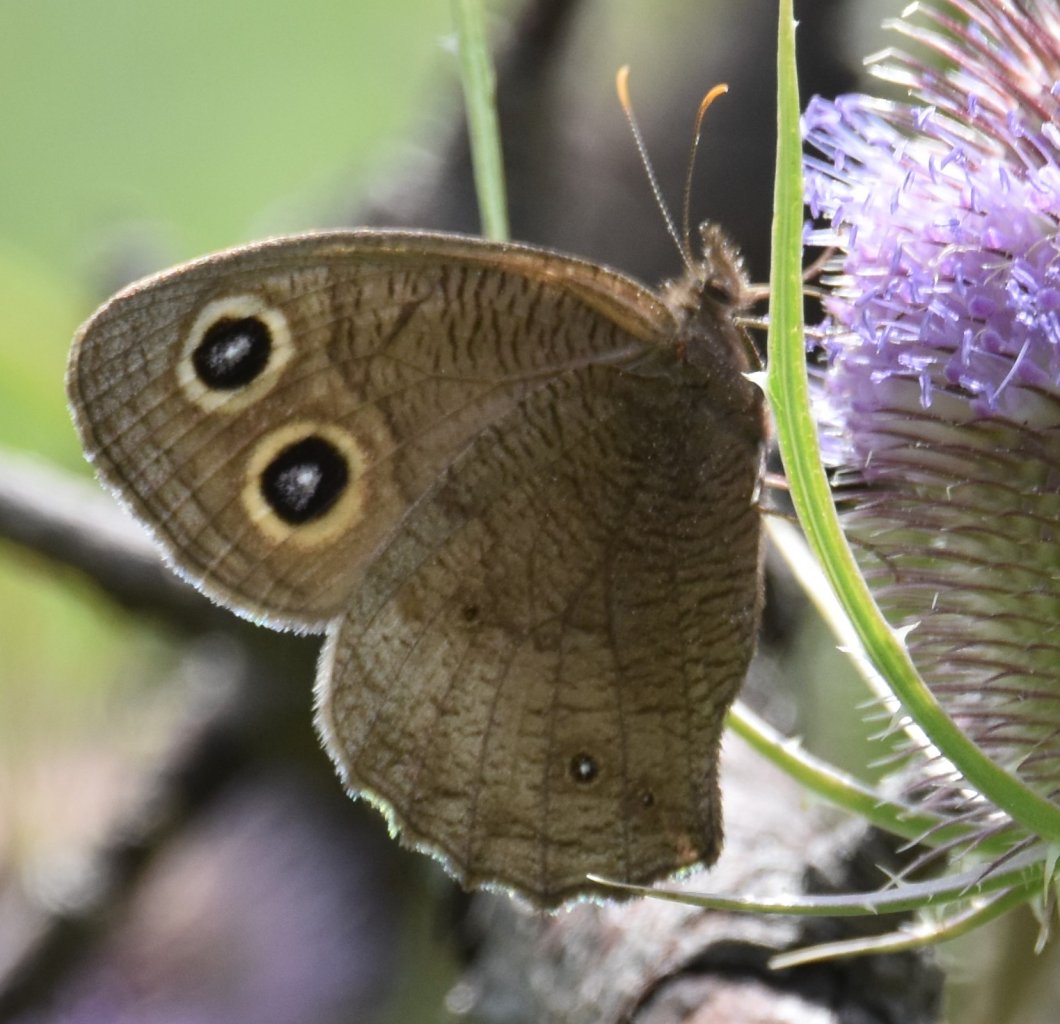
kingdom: Animalia
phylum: Arthropoda
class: Insecta
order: Lepidoptera
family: Nymphalidae
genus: Cercyonis
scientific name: Cercyonis pegala
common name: Common Wood-Nymph
